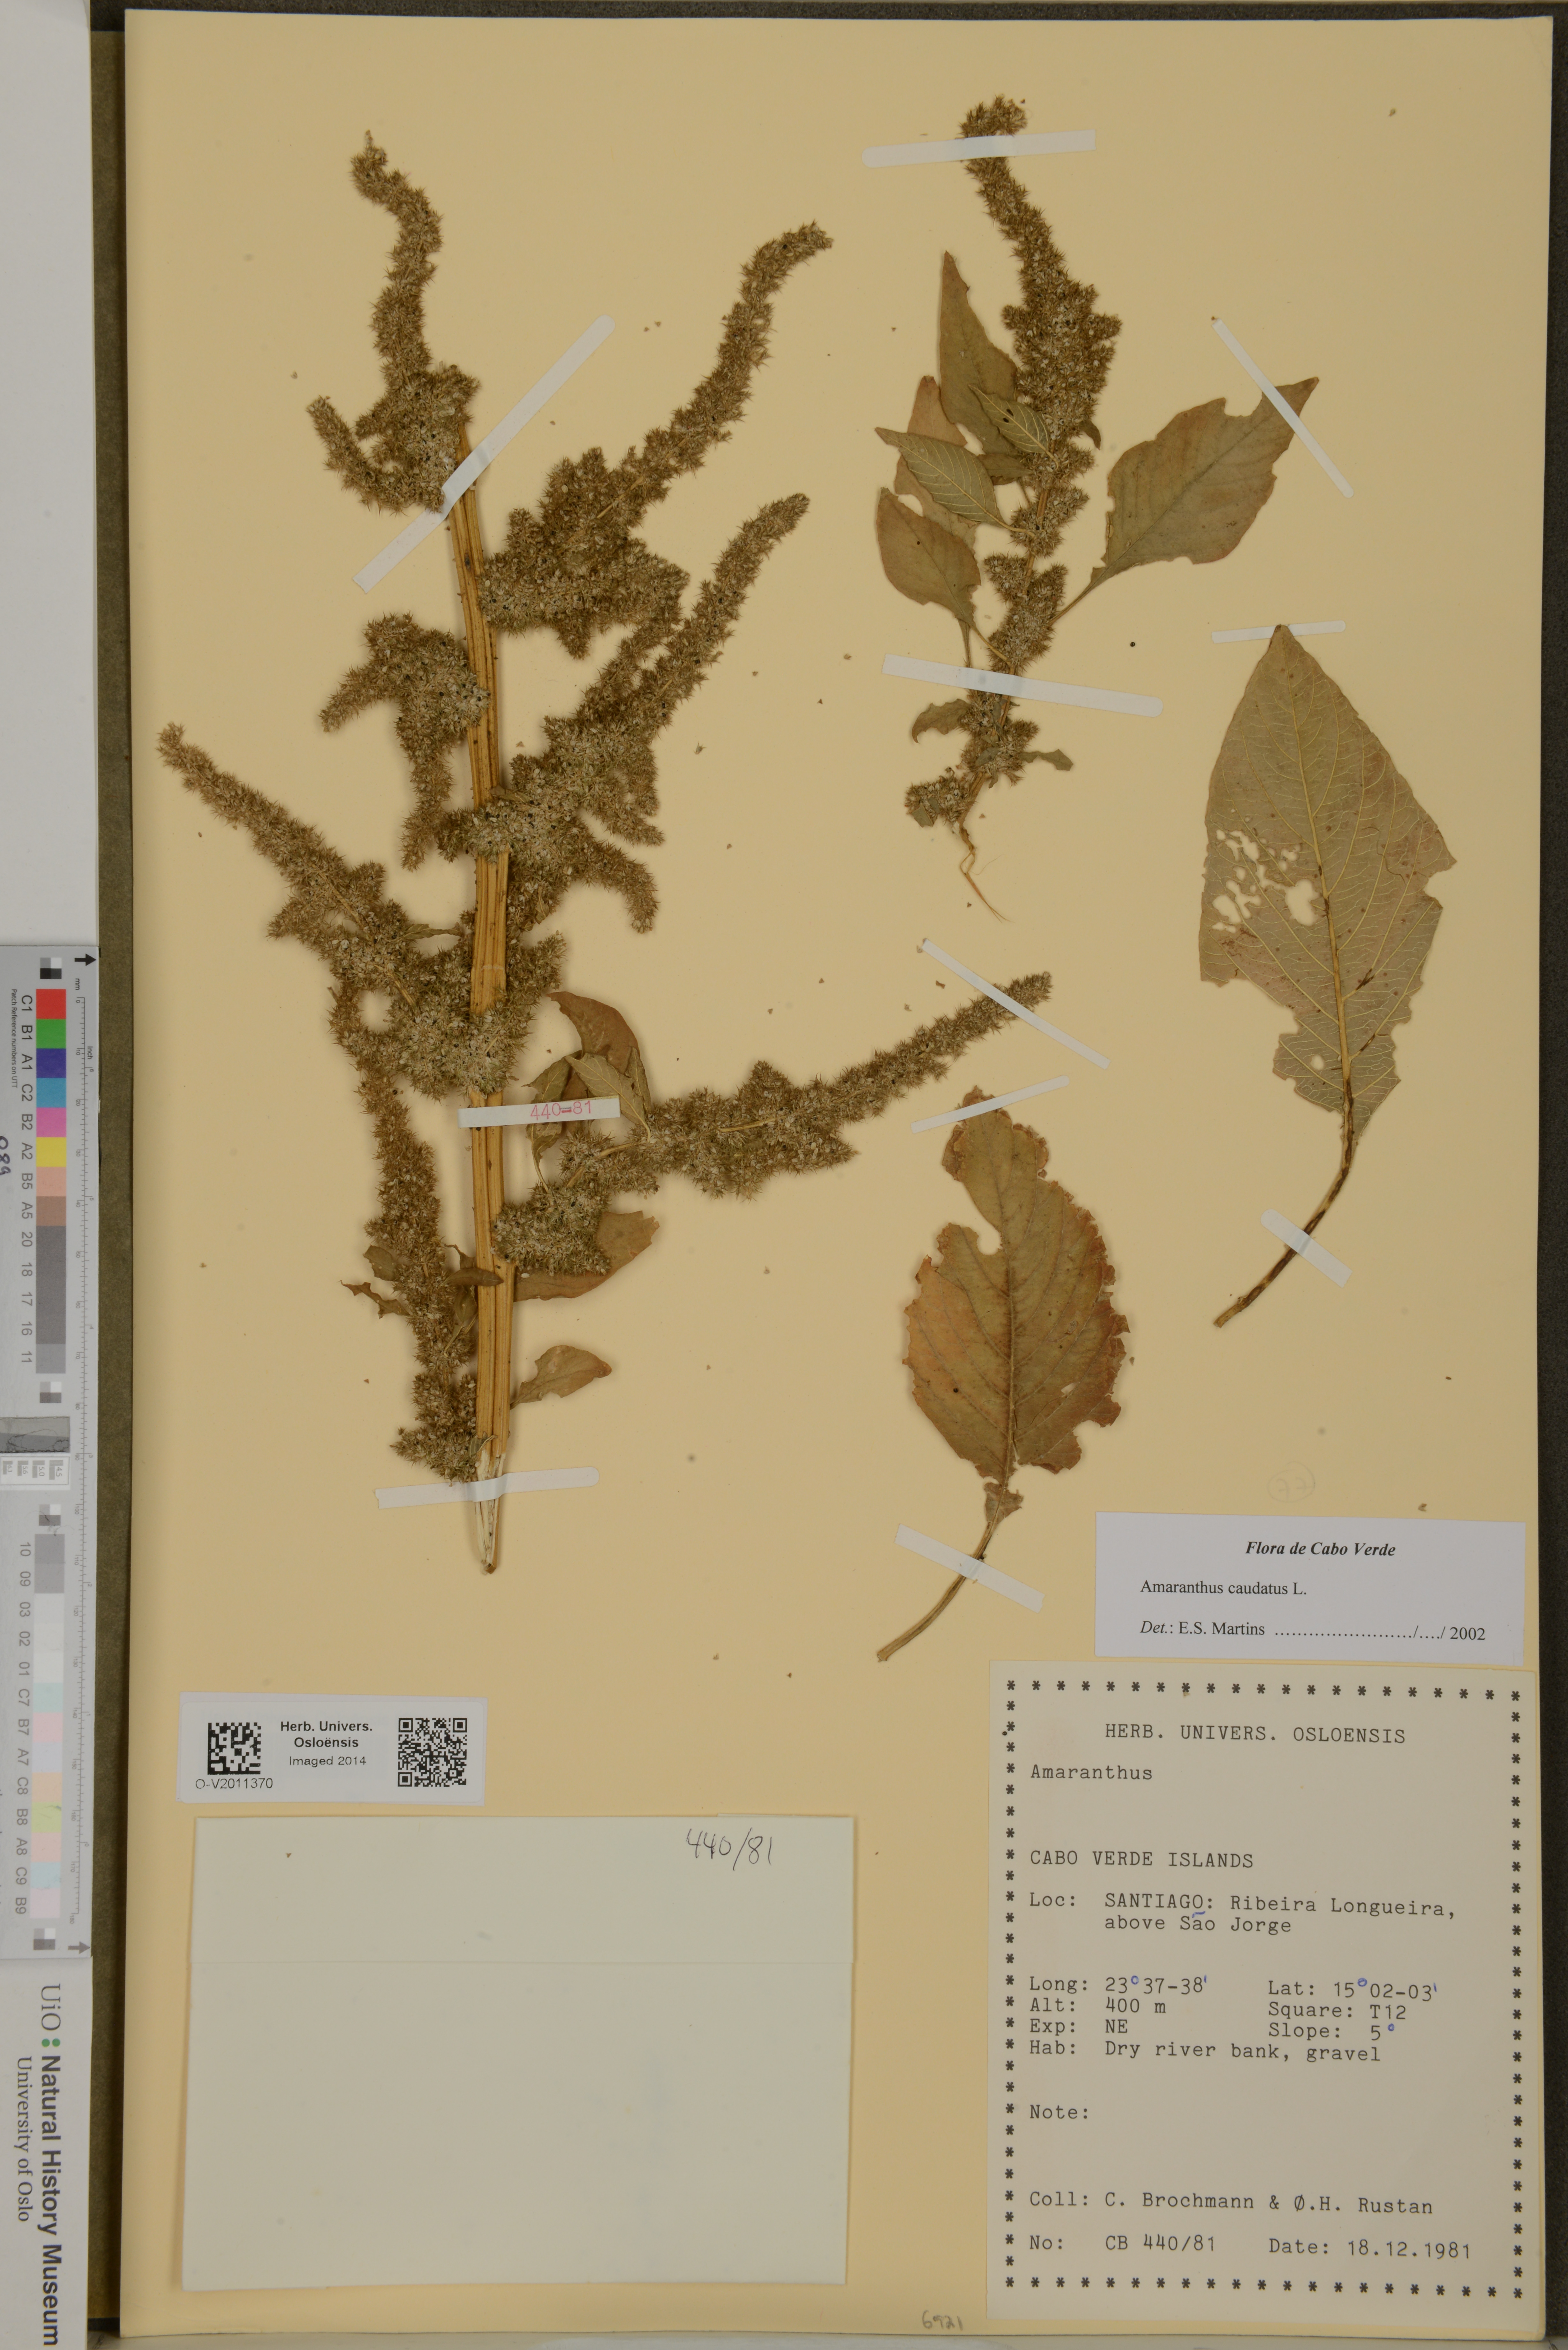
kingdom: Plantae
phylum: Tracheophyta
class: Magnoliopsida
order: Caryophyllales
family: Amaranthaceae
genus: Amaranthus
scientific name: Amaranthus caudatus
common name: Love-lies-bleeding
